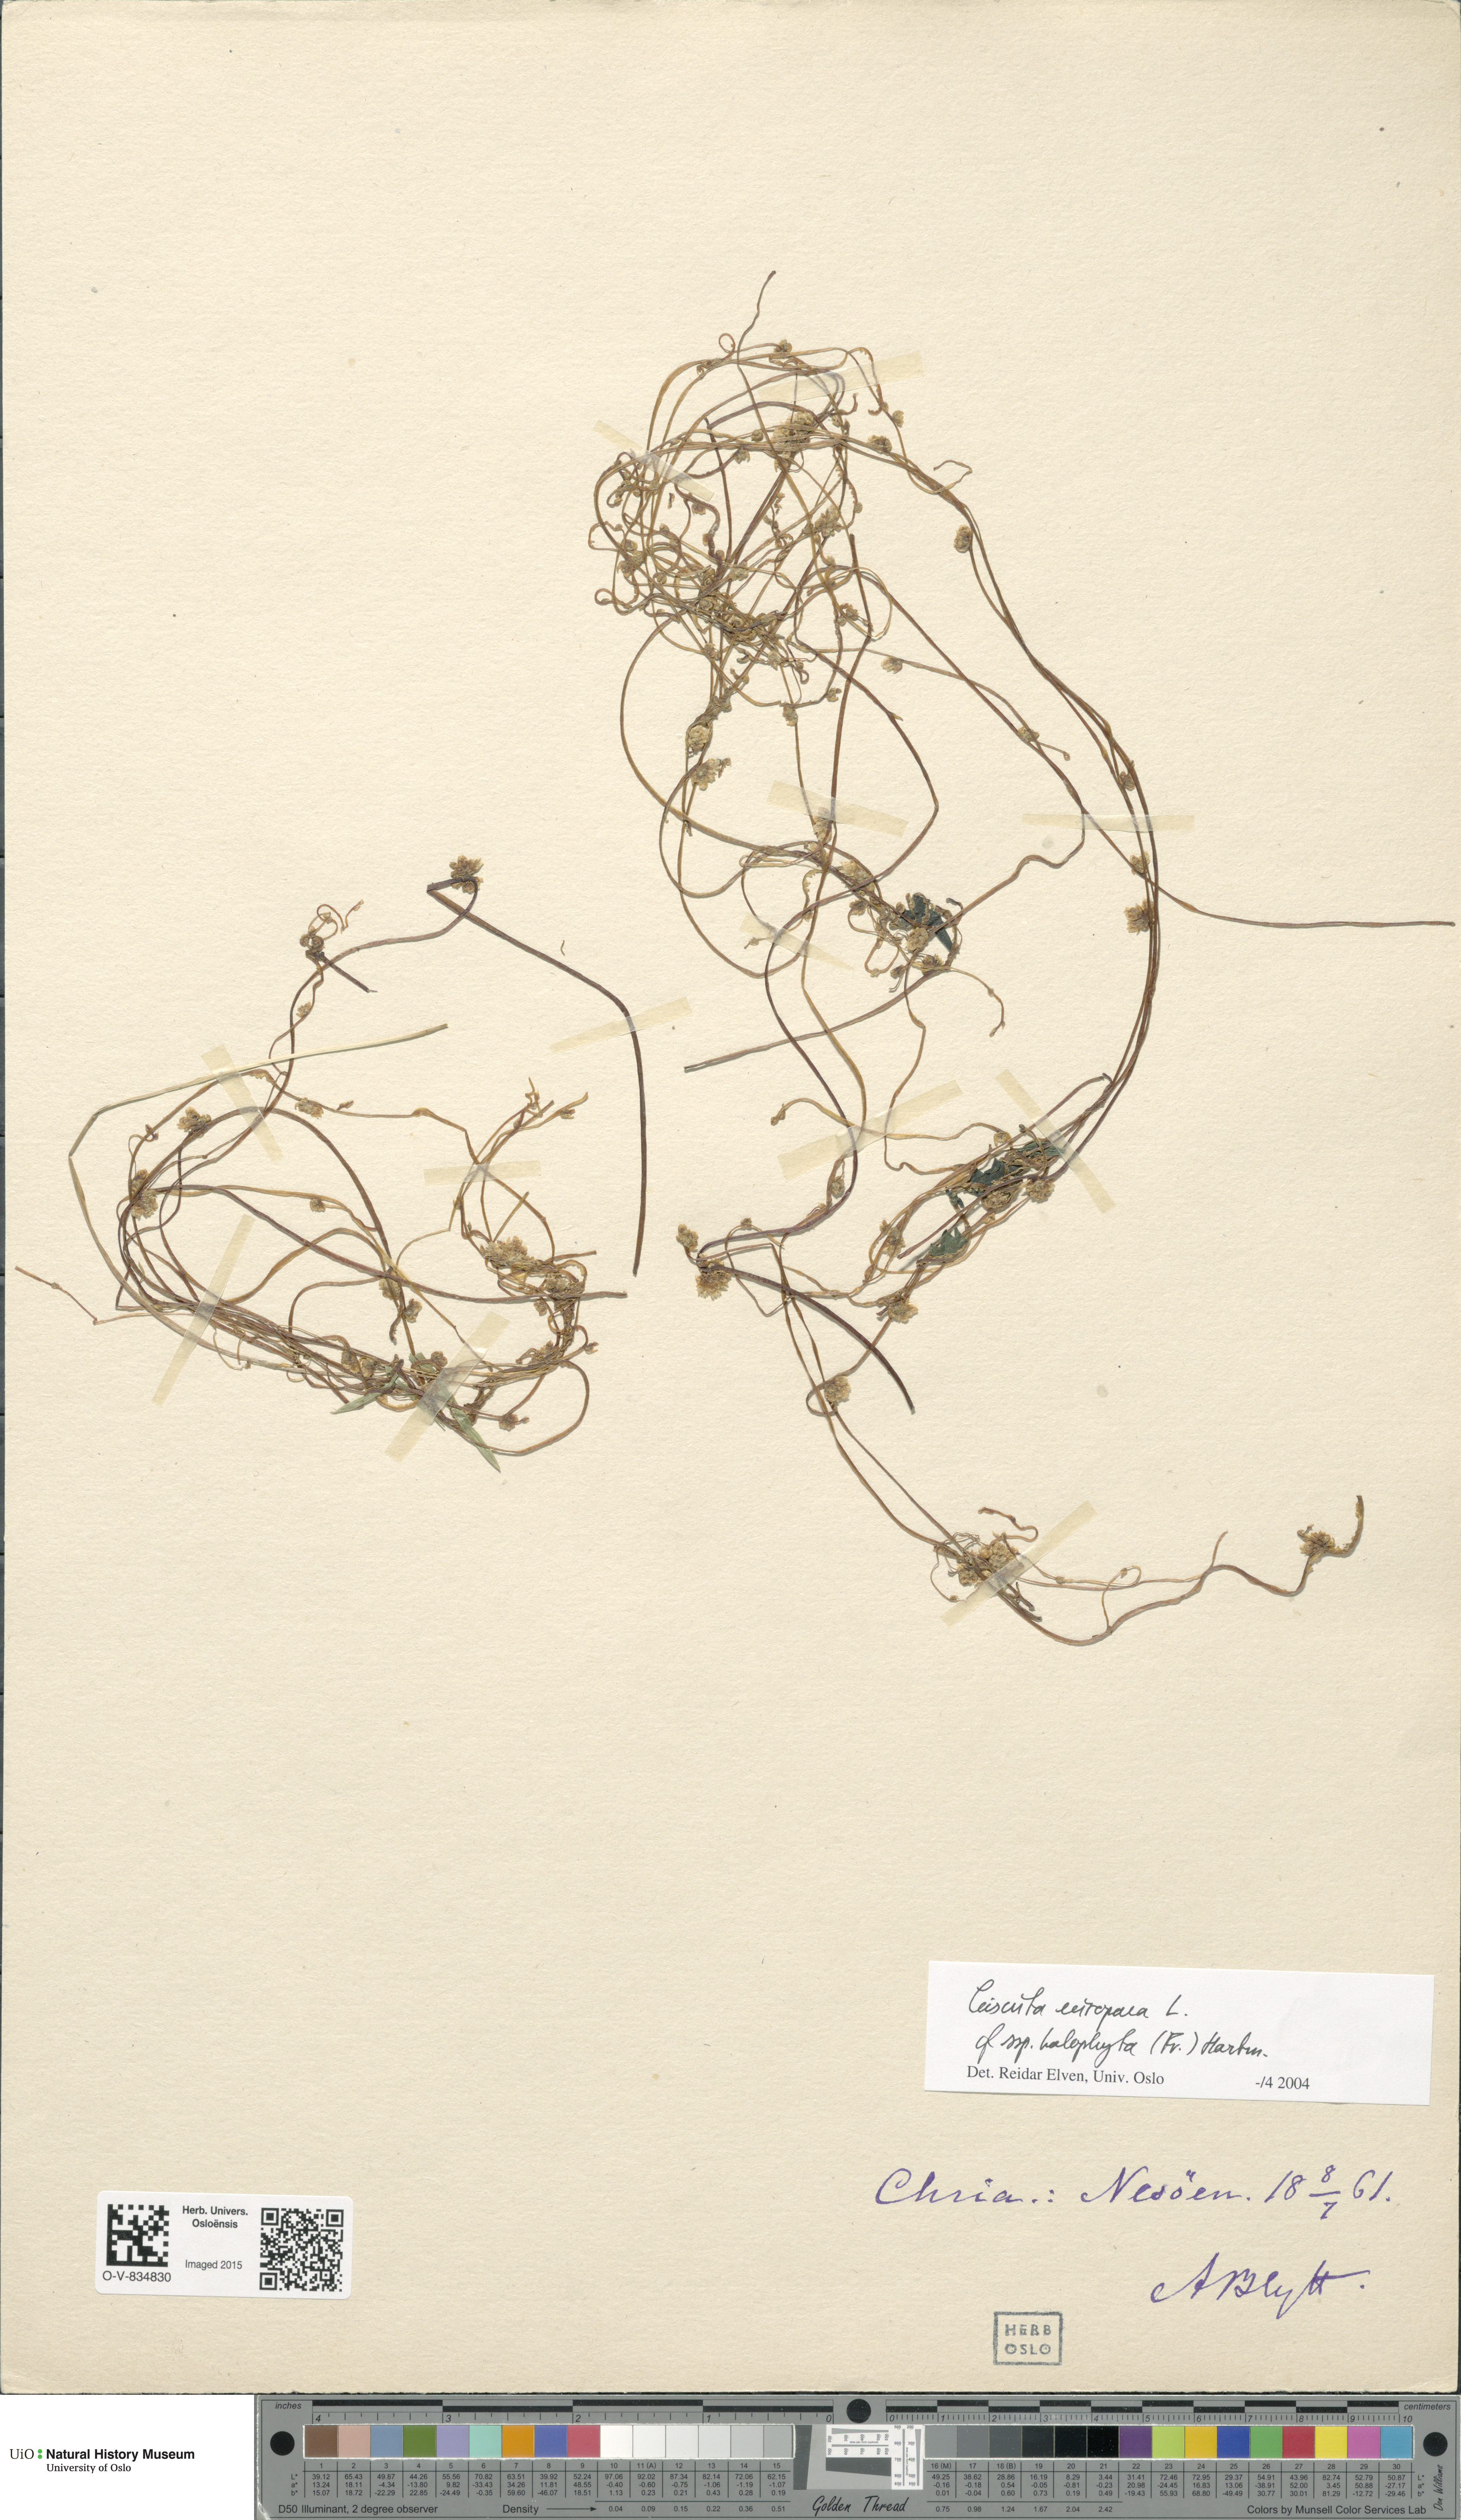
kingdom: Plantae
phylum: Tracheophyta
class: Magnoliopsida
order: Solanales
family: Convolvulaceae
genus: Cuscuta
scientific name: Cuscuta europaea
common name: Greater dodder
